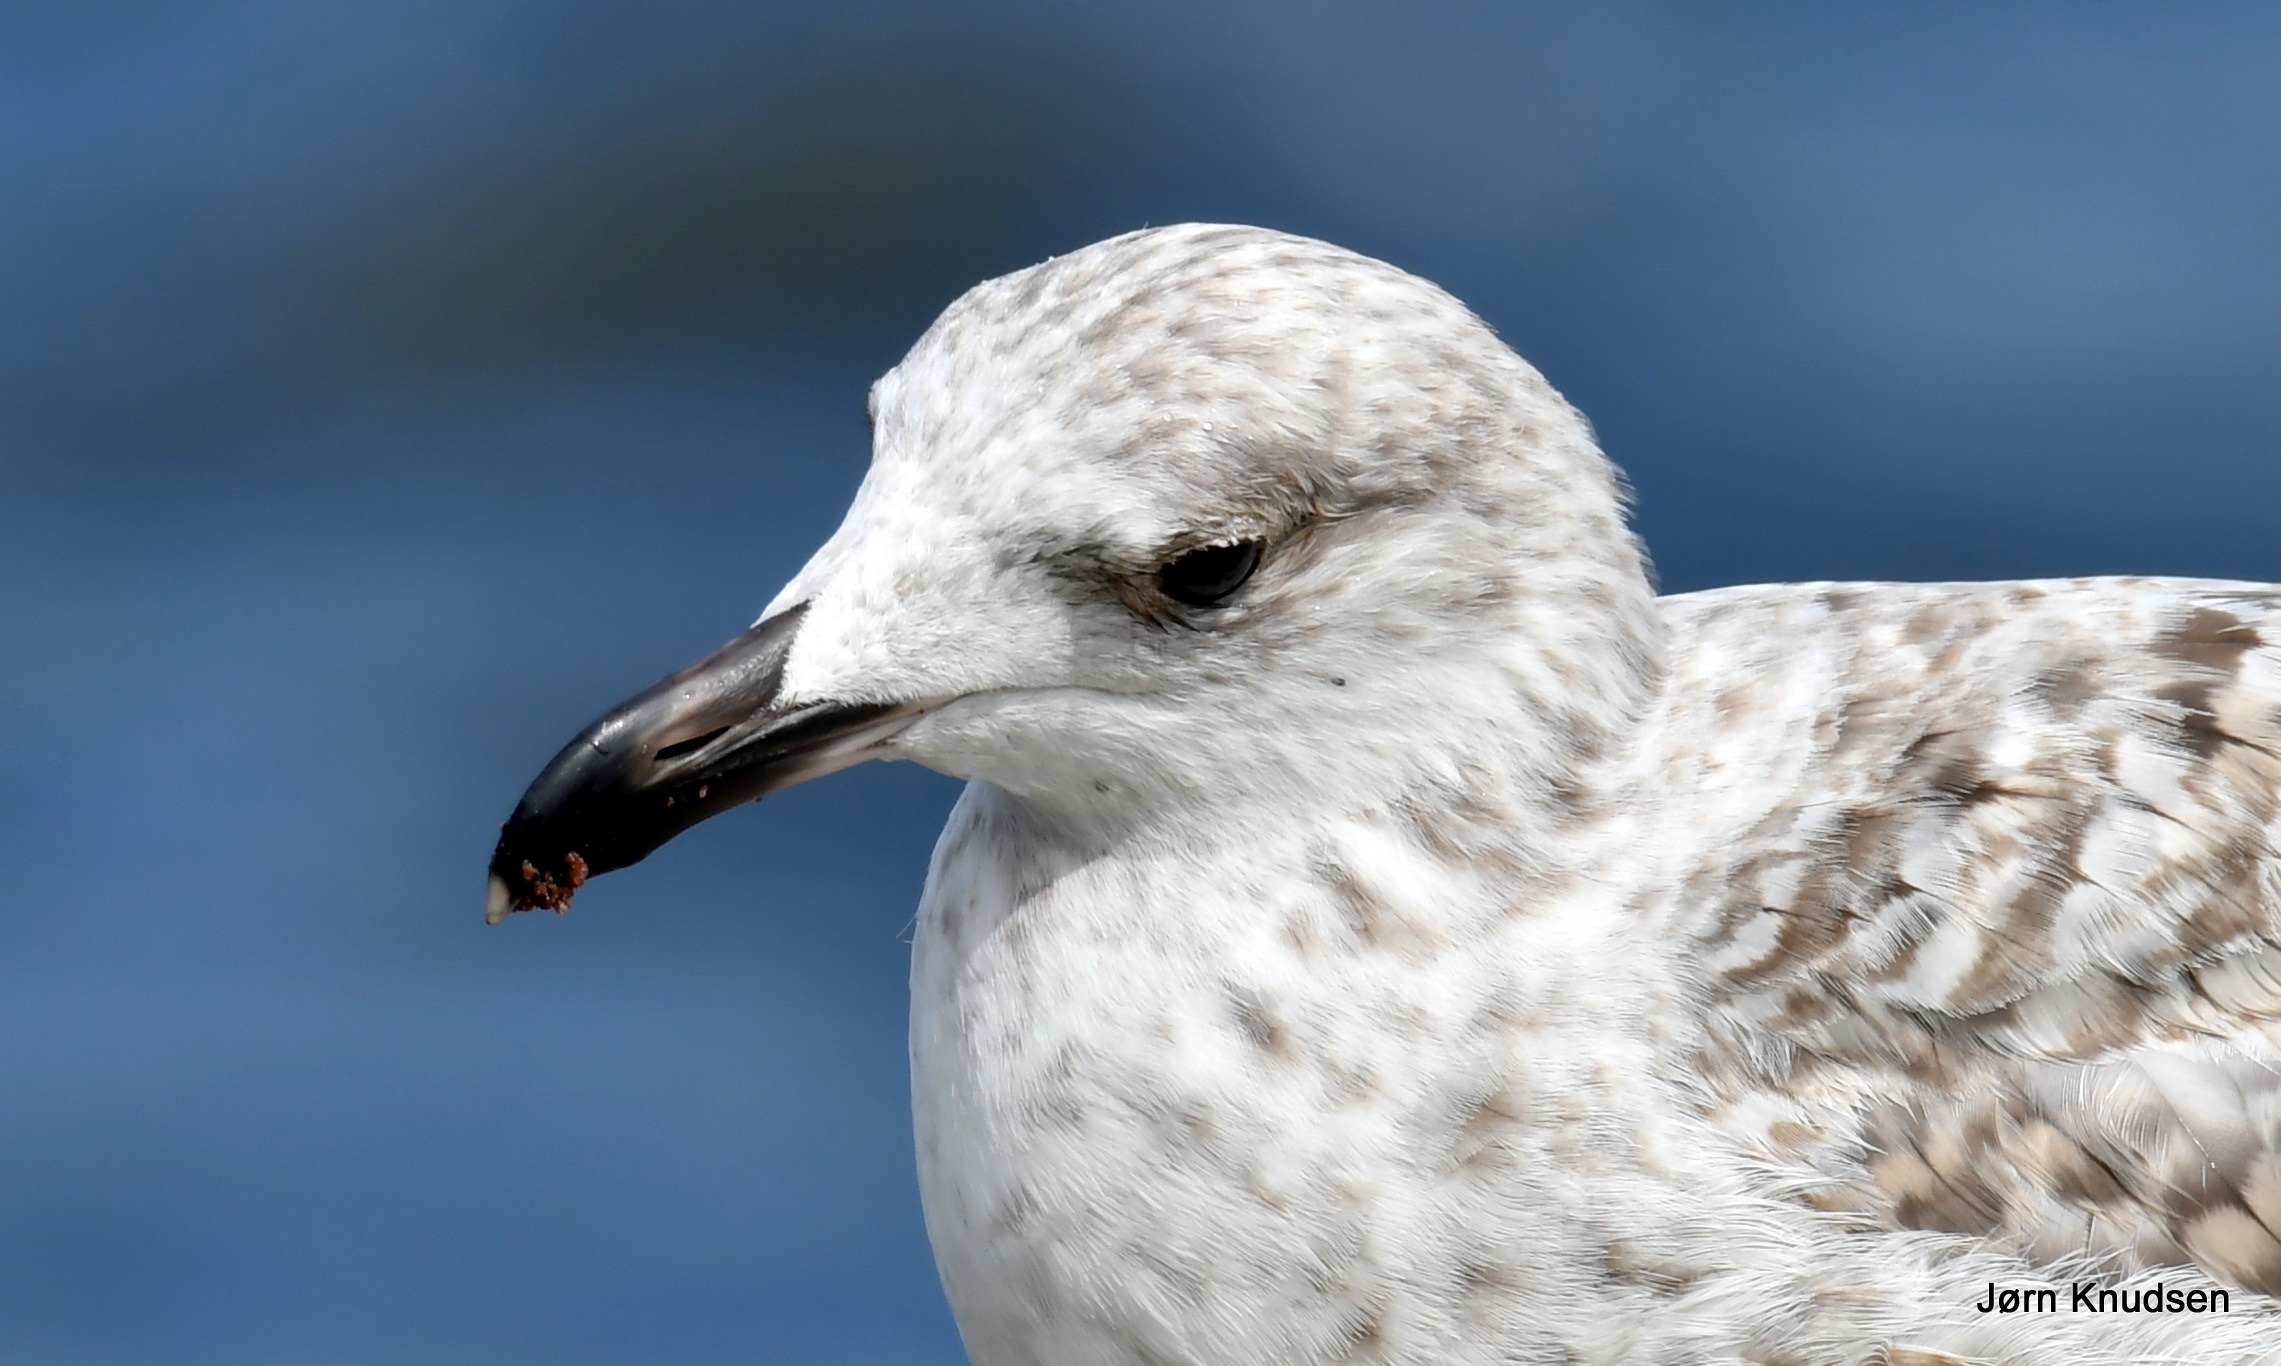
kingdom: Animalia
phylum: Chordata
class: Aves
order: Charadriiformes
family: Laridae
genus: Larus
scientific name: Larus marinus
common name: Svartbag
